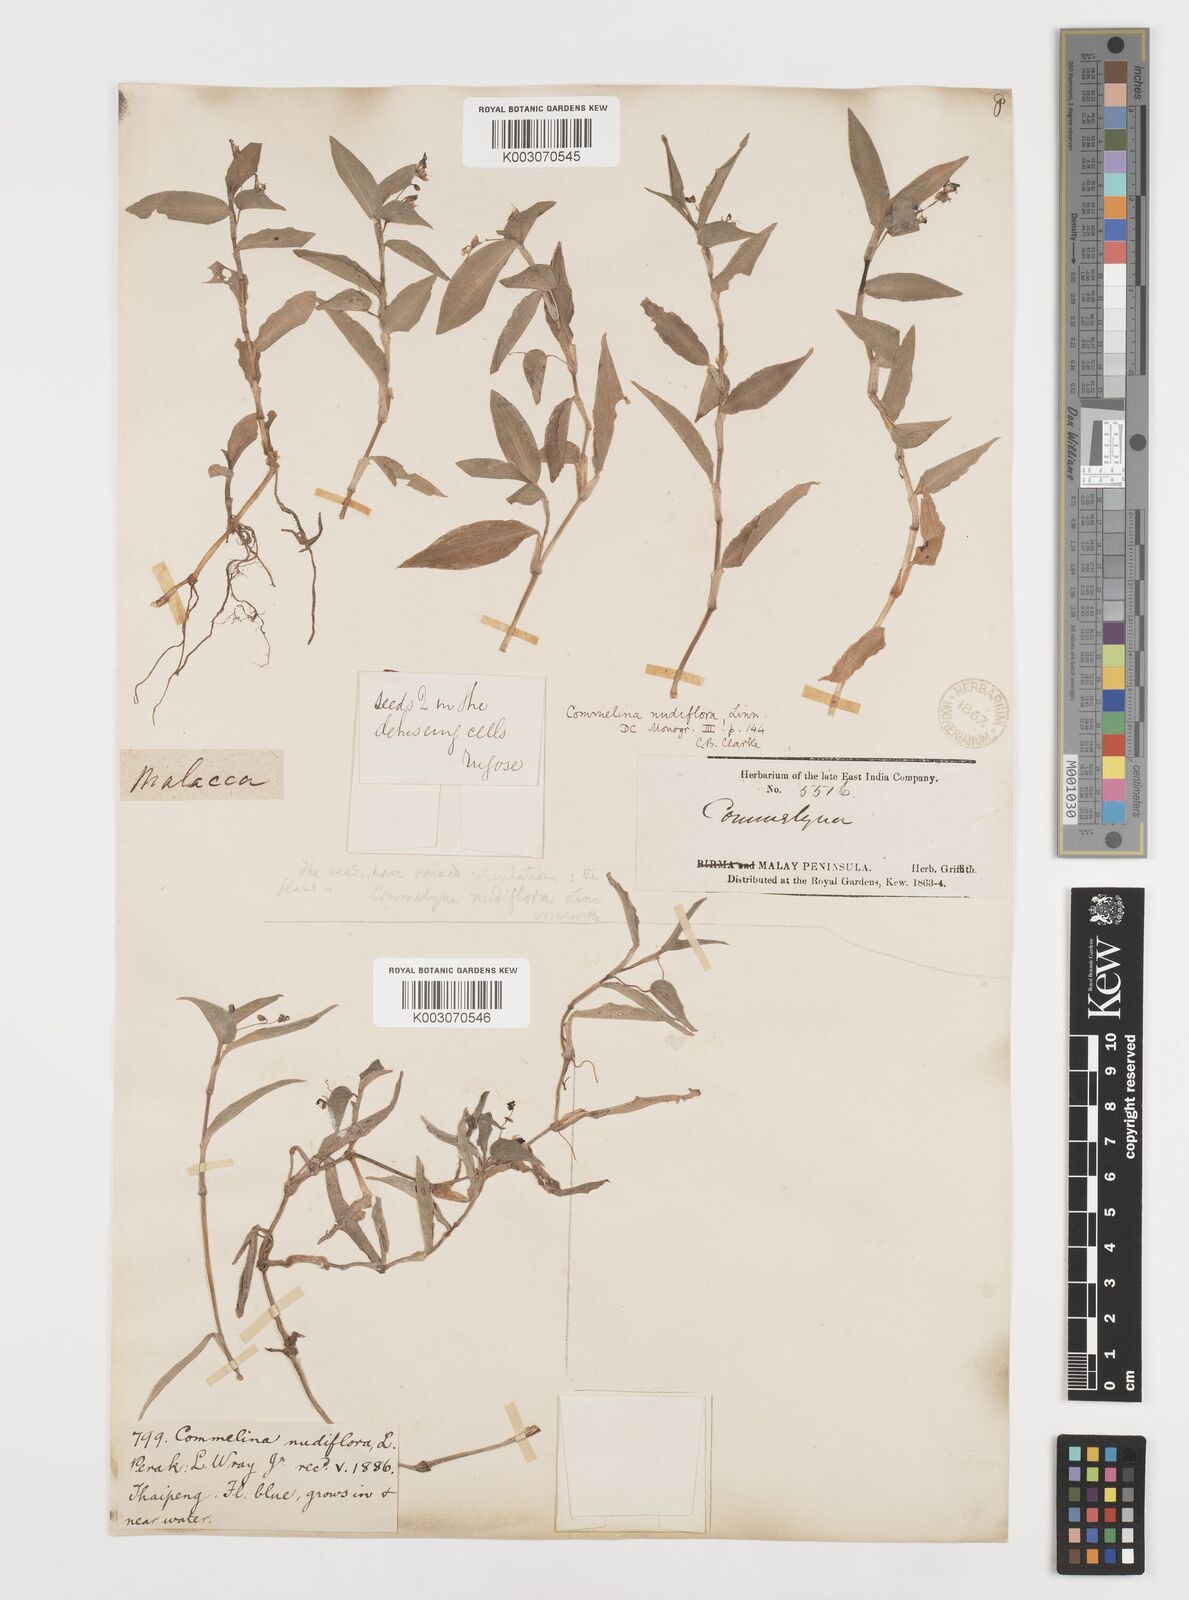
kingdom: Plantae
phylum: Tracheophyta
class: Liliopsida
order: Commelinales
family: Commelinaceae
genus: Commelina
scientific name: Commelina clavata
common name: Willow leaved dayflower
